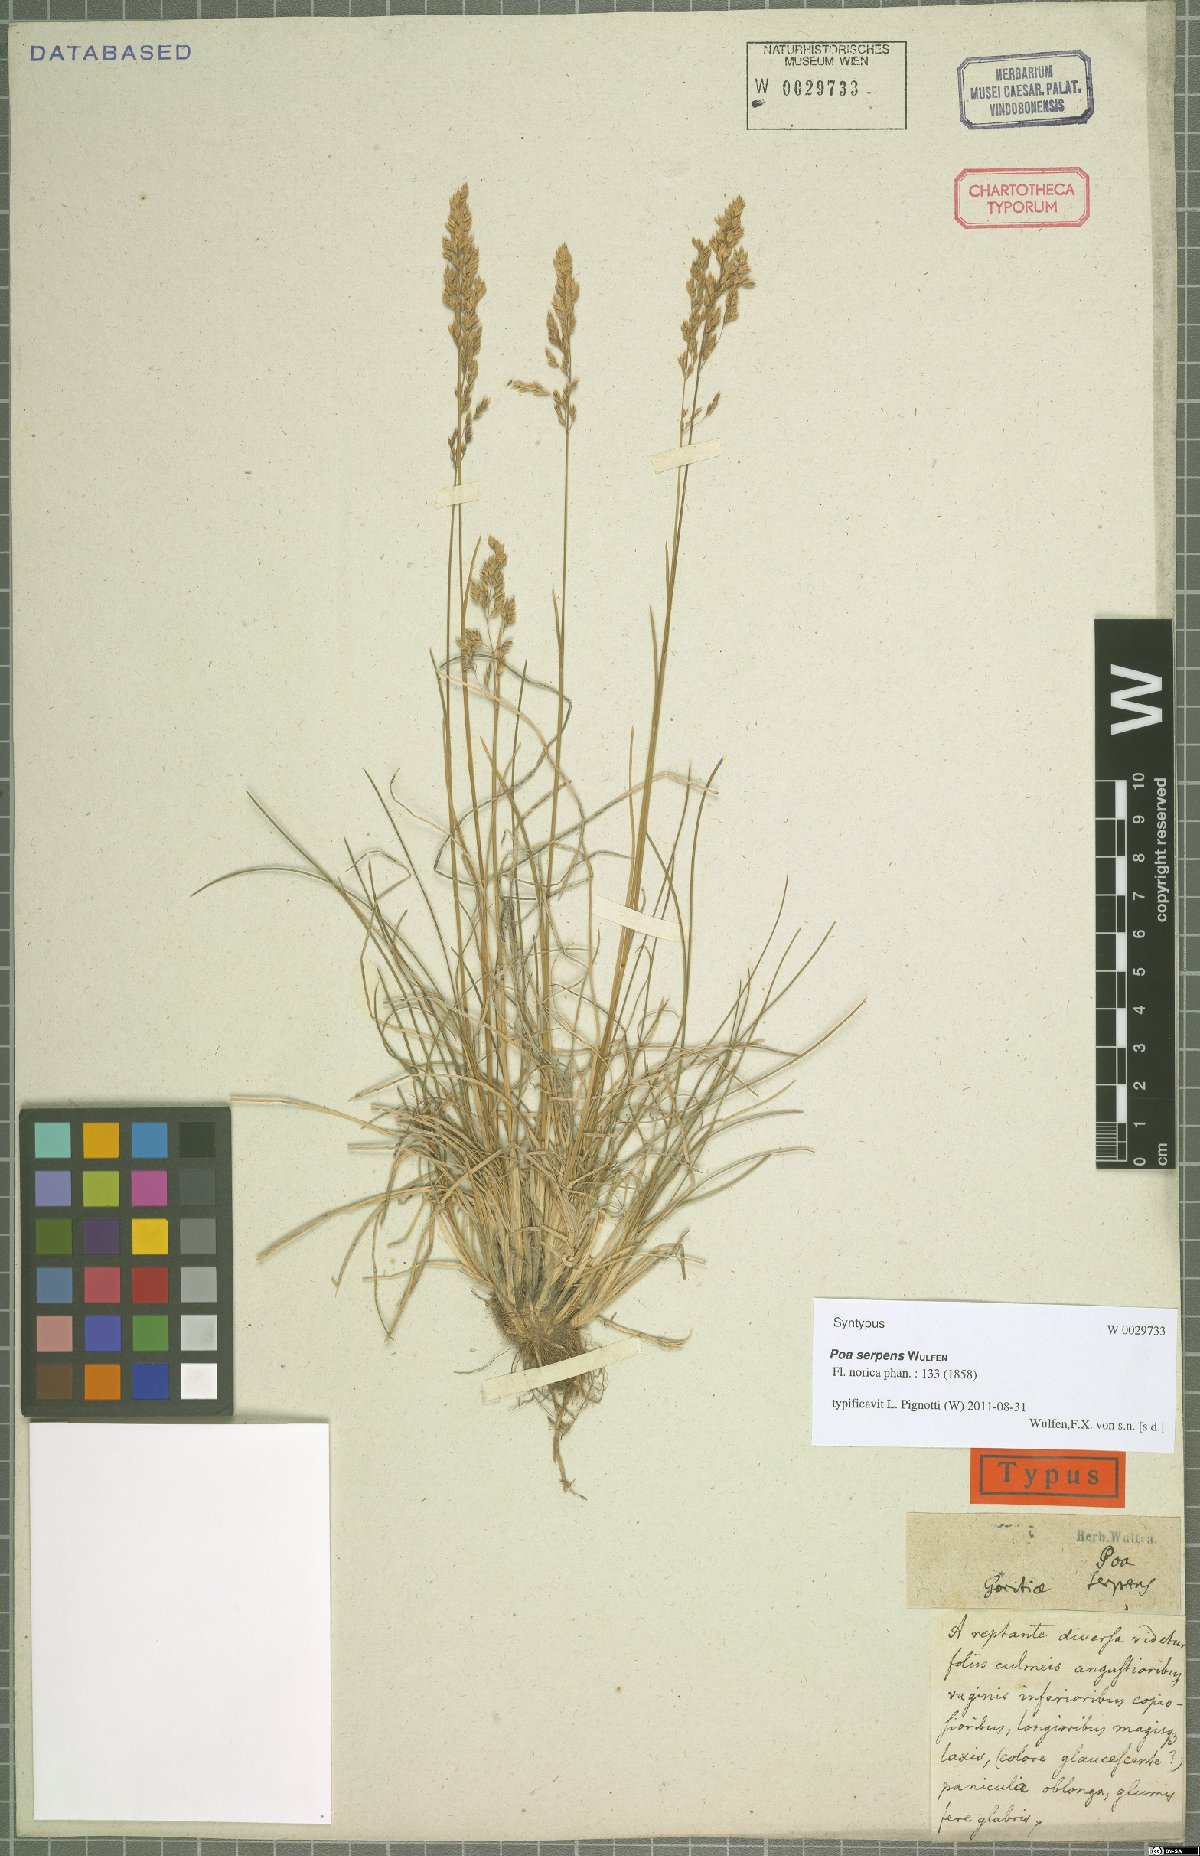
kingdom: Plantae
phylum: Tracheophyta
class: Liliopsida
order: Poales
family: Poaceae
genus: Poa
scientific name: Poa alpina
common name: Alpine bluegrass
